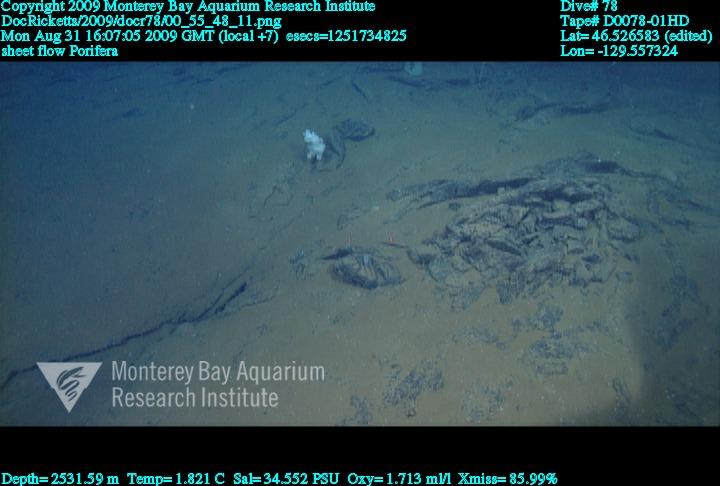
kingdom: Animalia
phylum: Porifera
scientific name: Porifera
